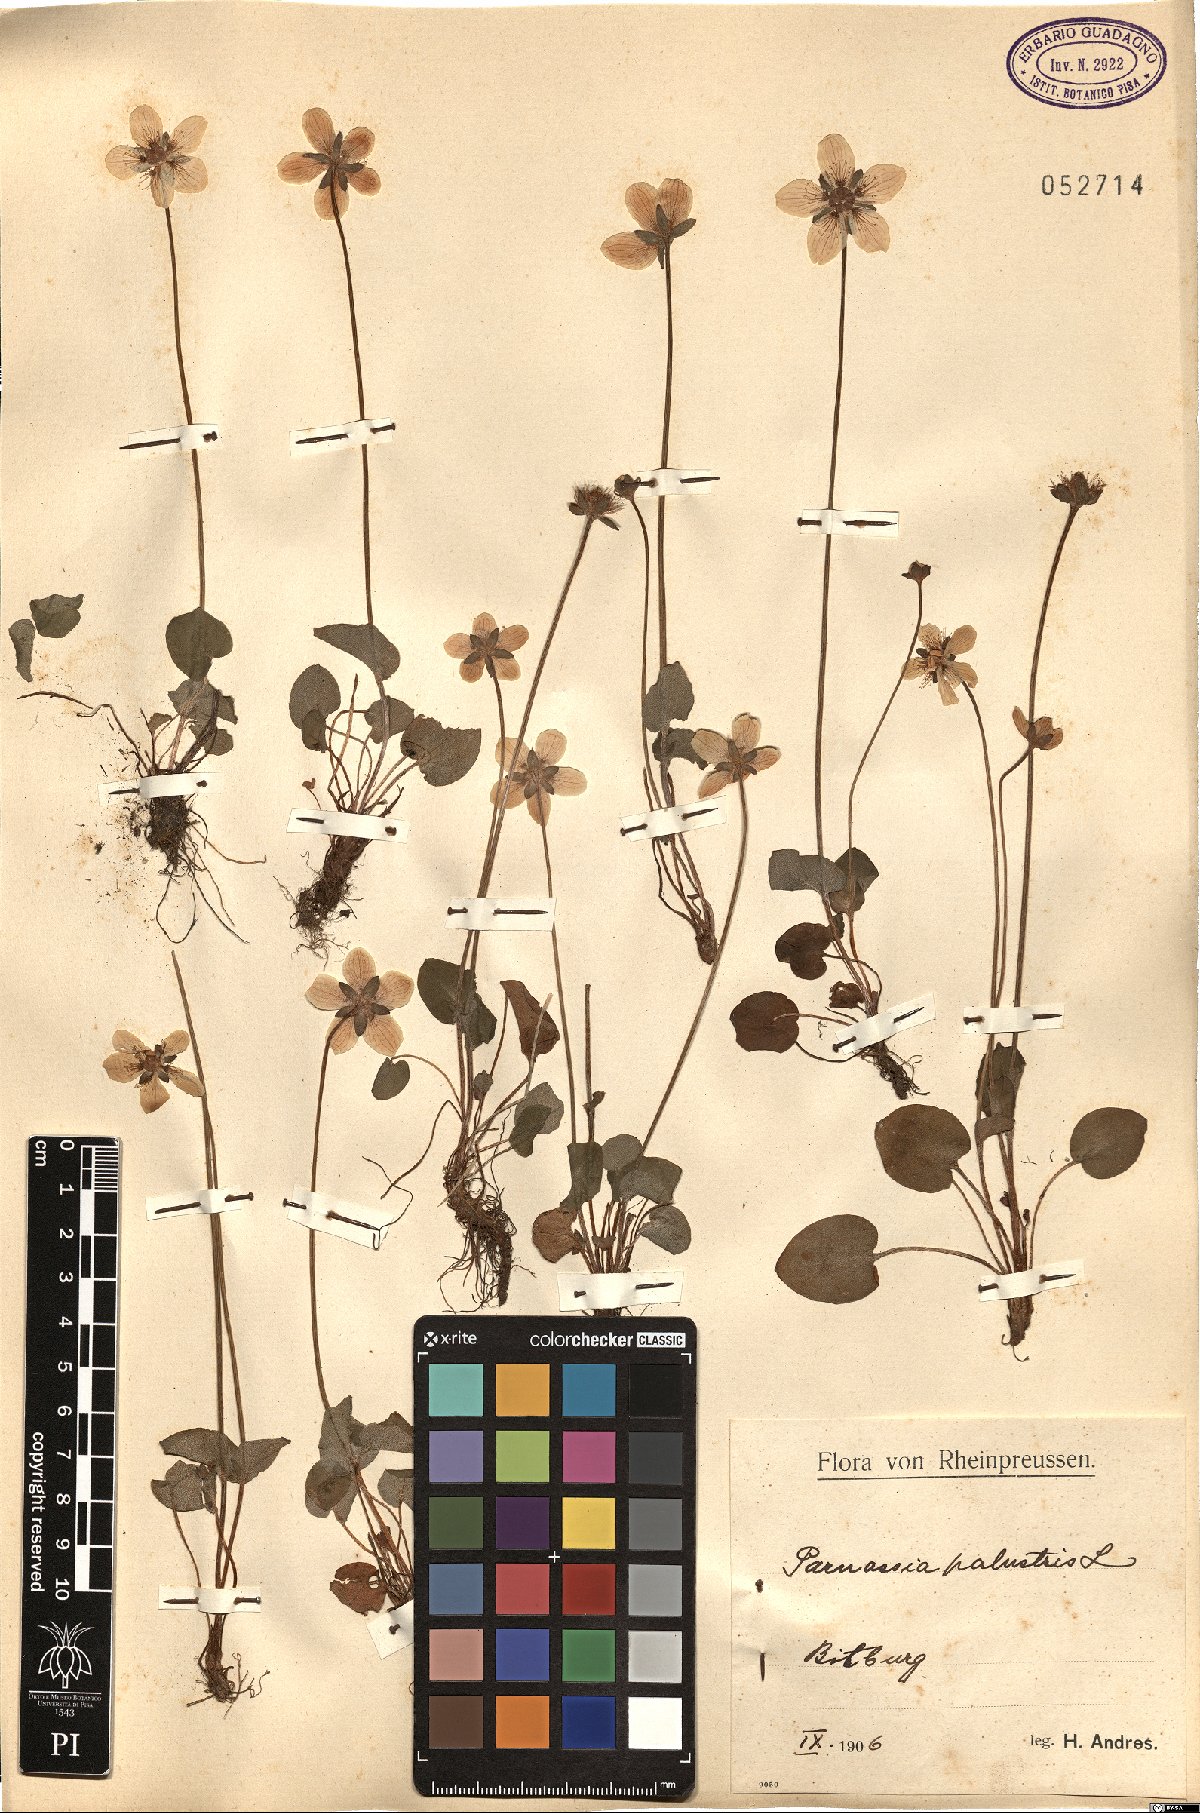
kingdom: Plantae
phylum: Tracheophyta
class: Magnoliopsida
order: Celastrales
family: Parnassiaceae
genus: Parnassia
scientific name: Parnassia palustris
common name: Grass-of-parnassus
